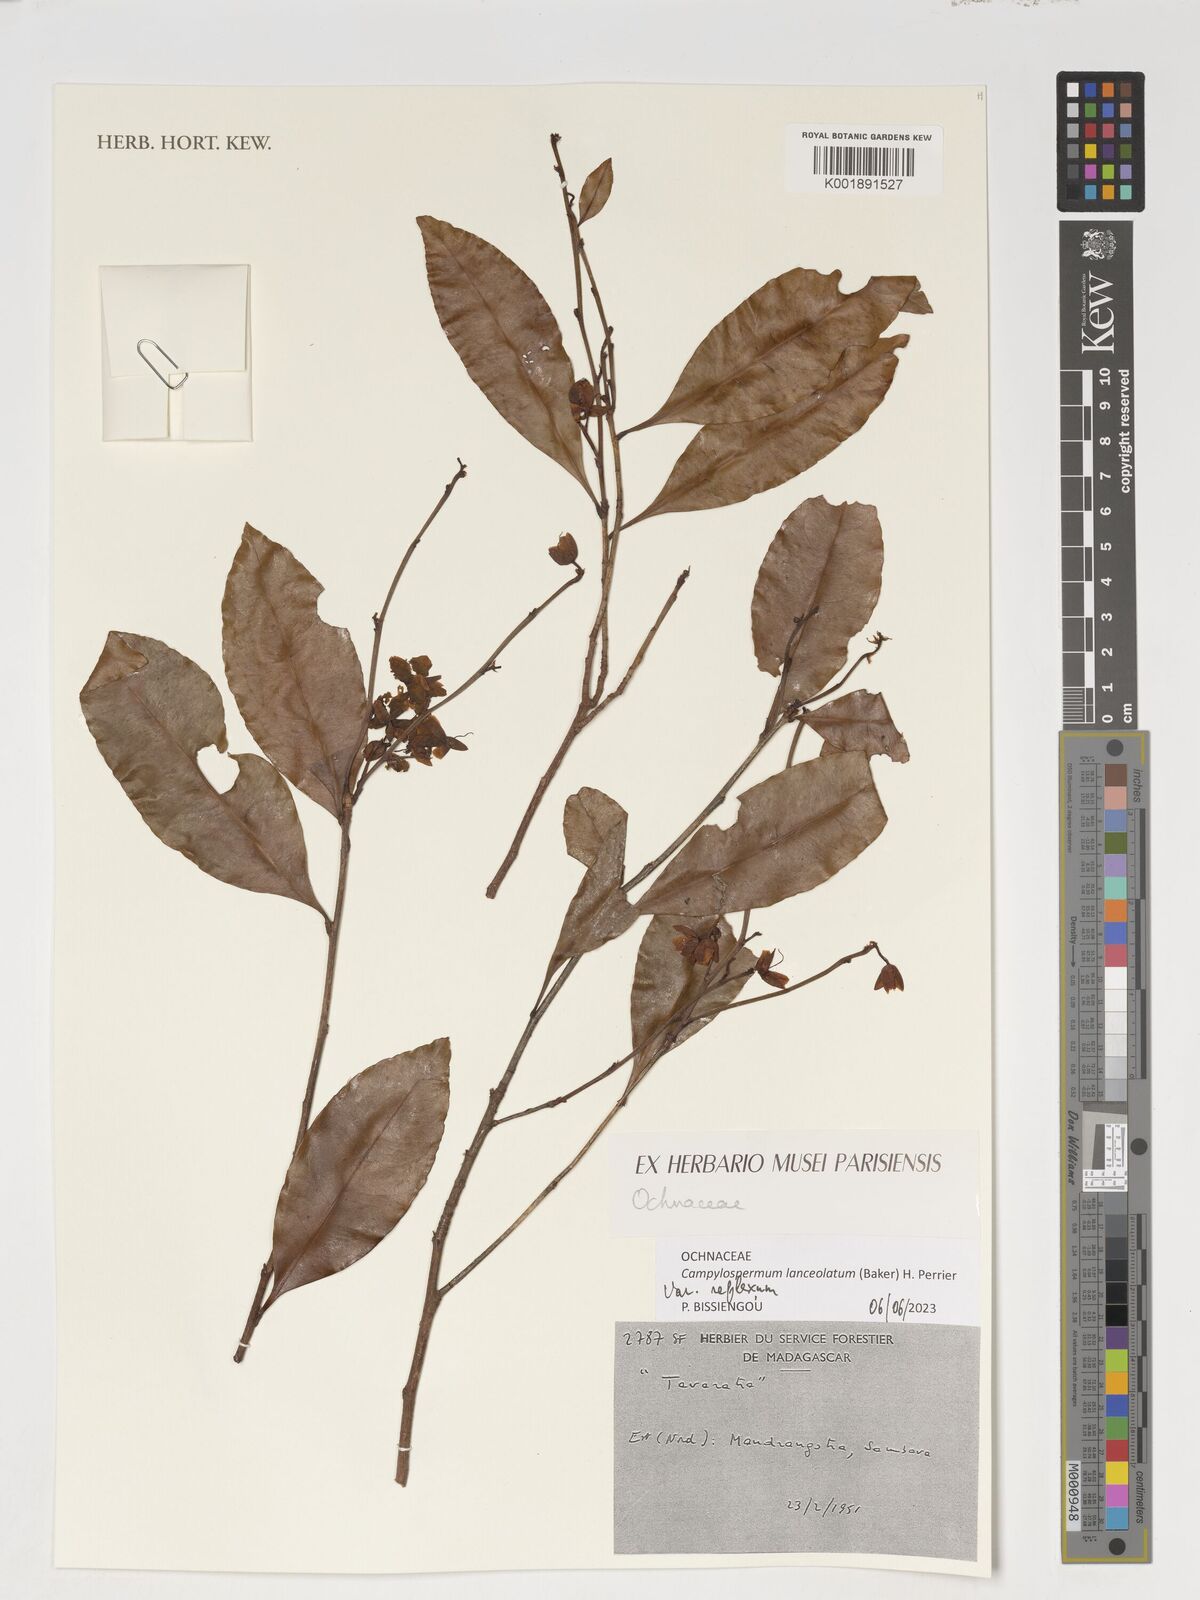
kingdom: Plantae
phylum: Tracheophyta
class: Magnoliopsida
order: Malpighiales
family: Ochnaceae
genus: Campylospermum
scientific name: Campylospermum lanceolatum
